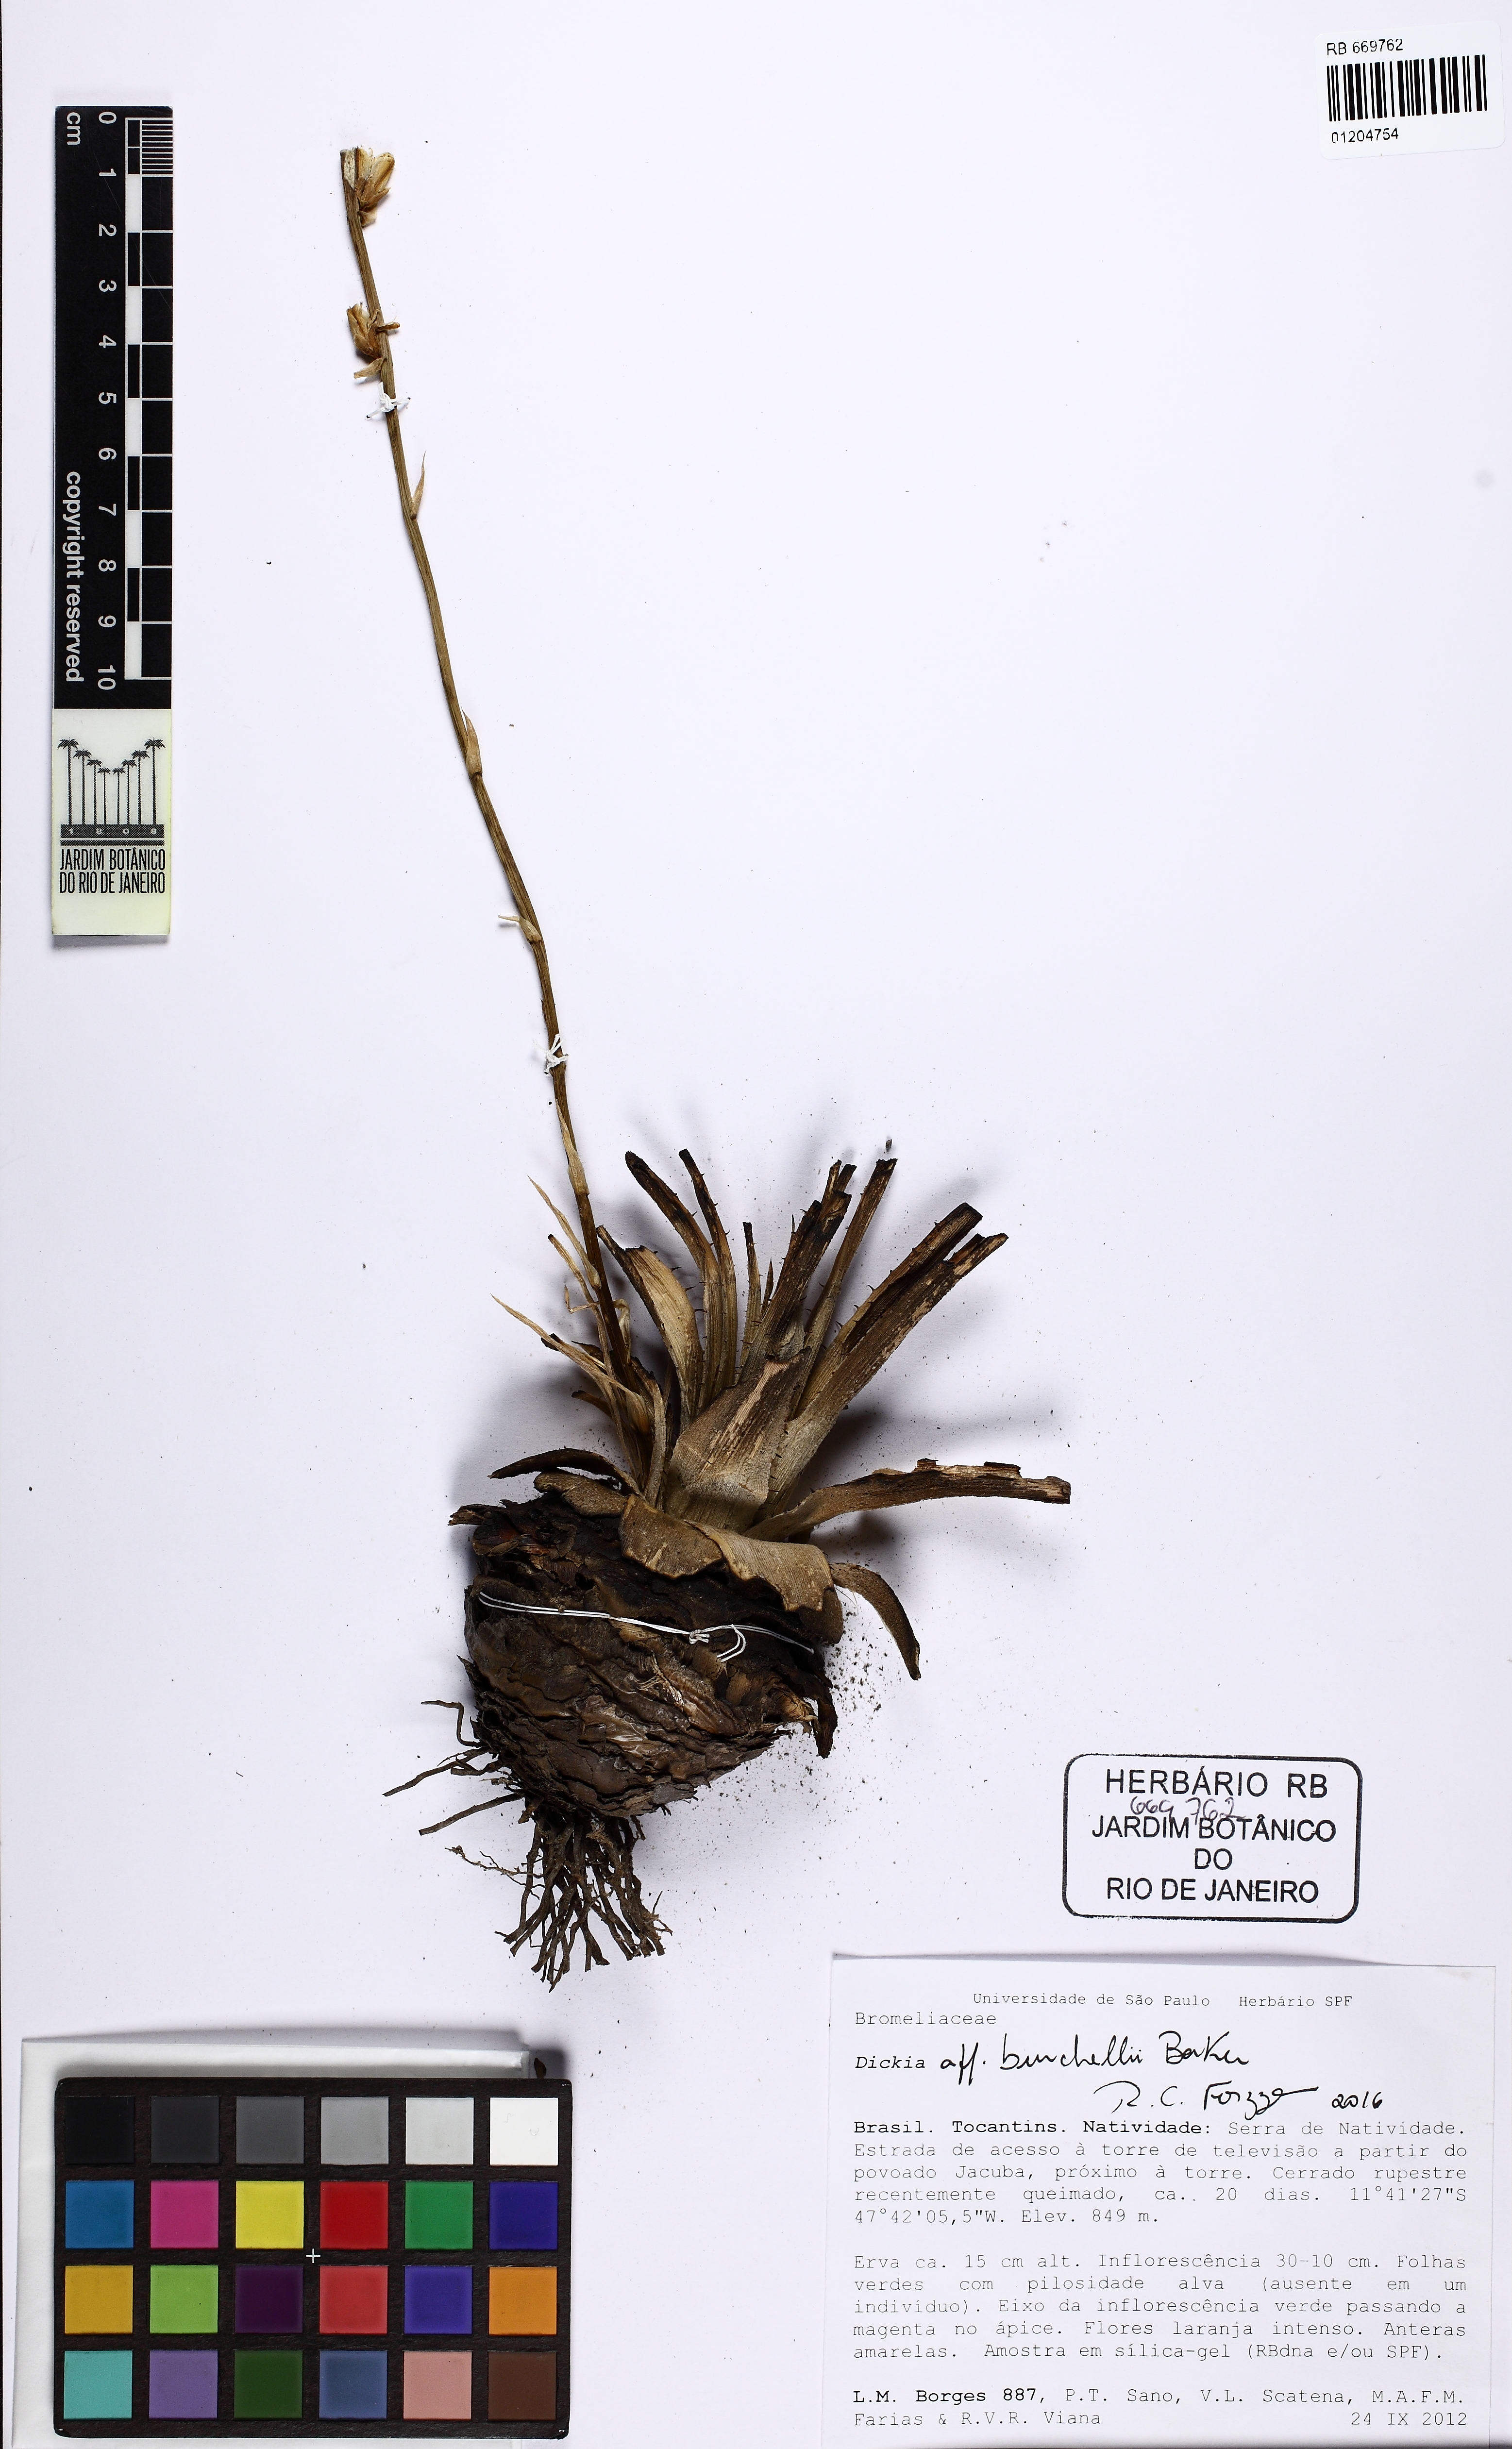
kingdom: Plantae
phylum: Tracheophyta
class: Liliopsida
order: Poales
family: Bromeliaceae
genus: Dyckia
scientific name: Dyckia burchellii
